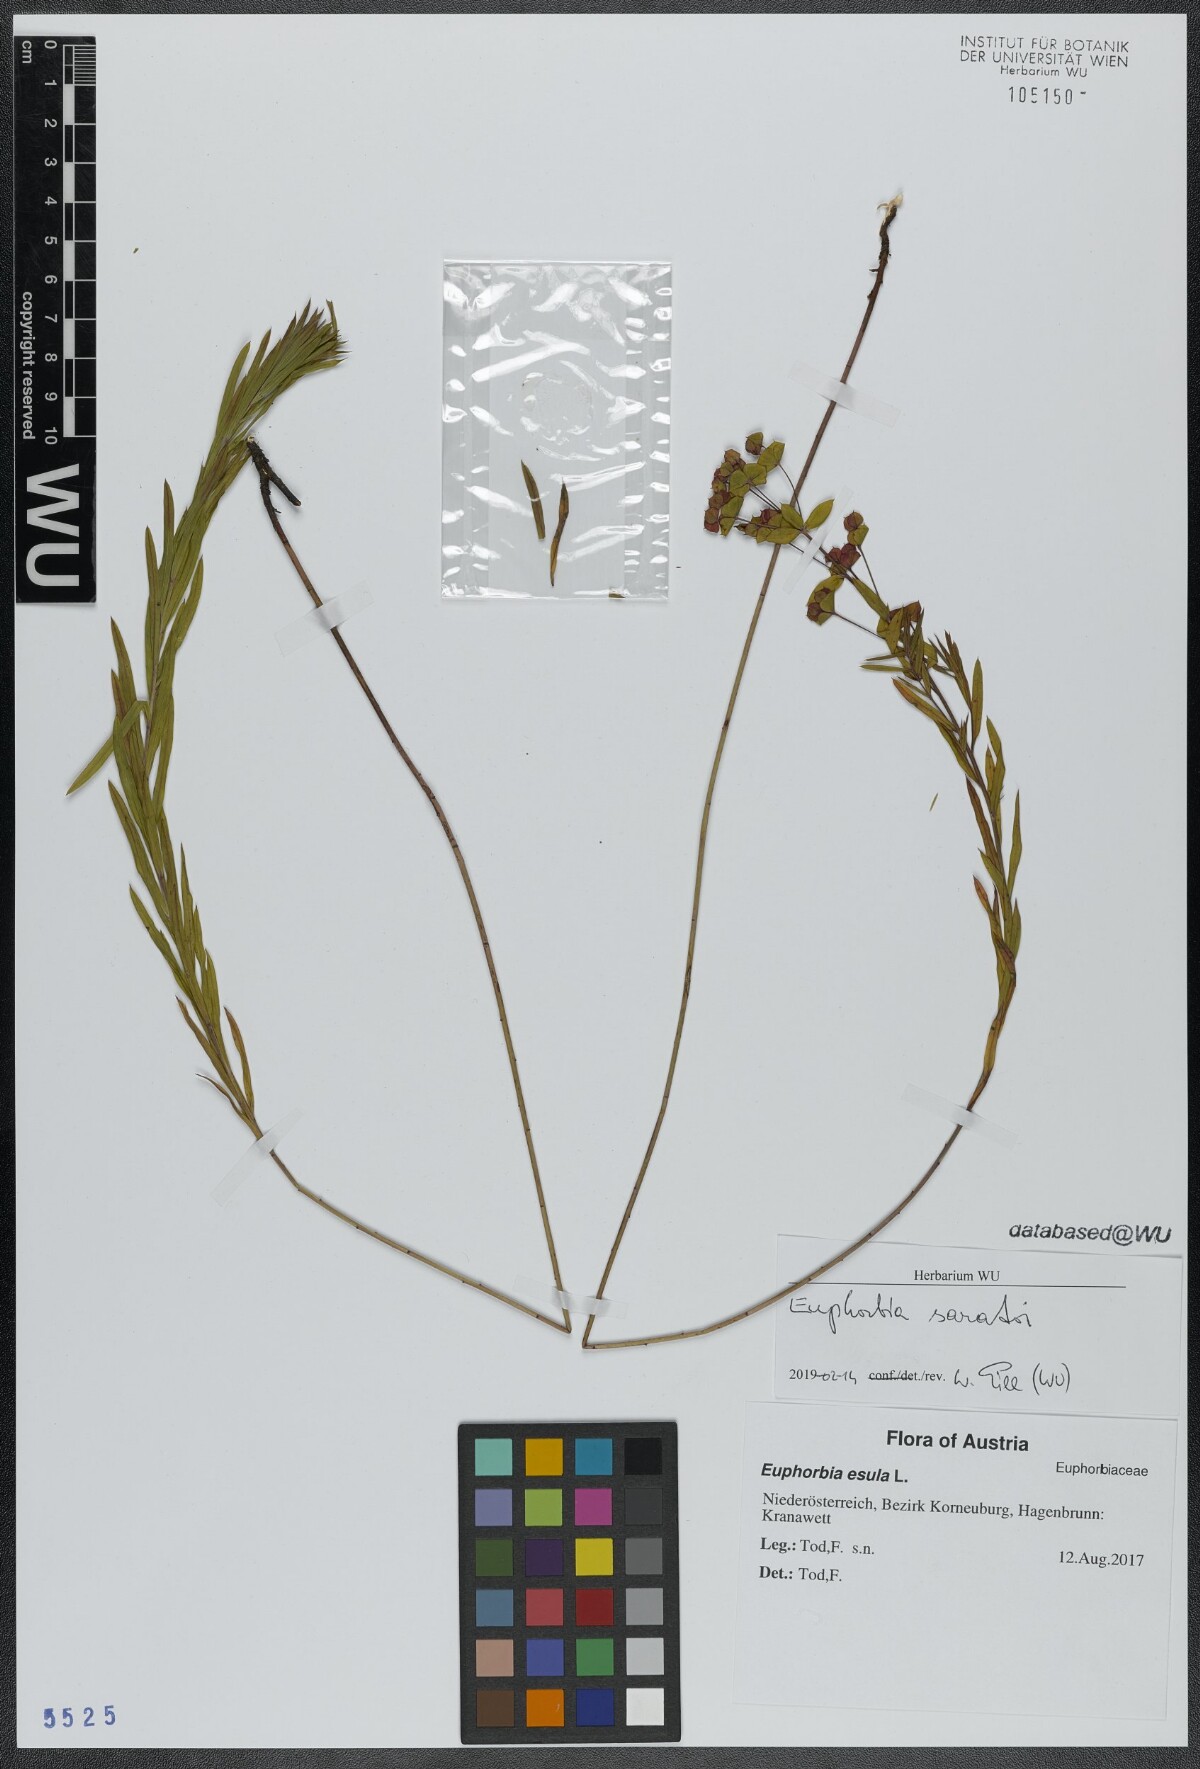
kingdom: Plantae
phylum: Tracheophyta
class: Magnoliopsida
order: Malpighiales
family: Euphorbiaceae
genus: Euphorbia
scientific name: Euphorbia saratoi
